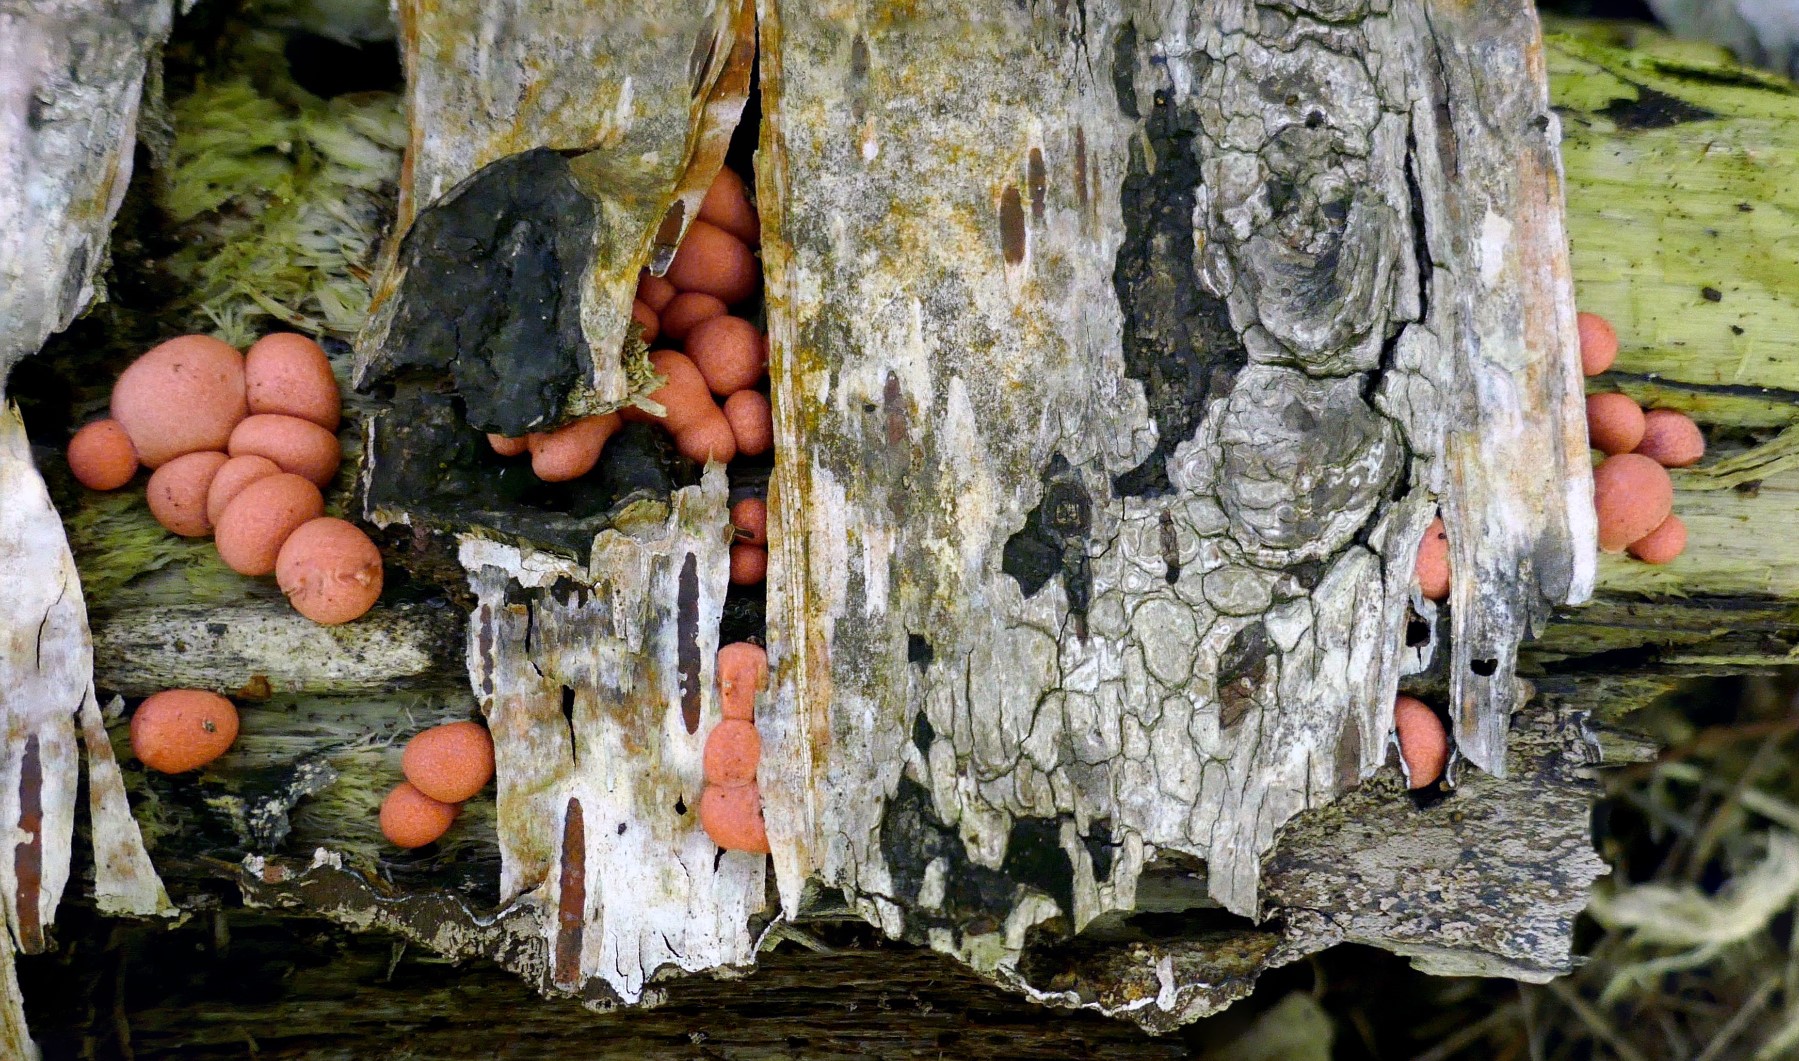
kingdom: Protozoa
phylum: Mycetozoa
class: Myxomycetes
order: Cribrariales
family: Tubiferaceae
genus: Lycogala
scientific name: Lycogala epidendrum
